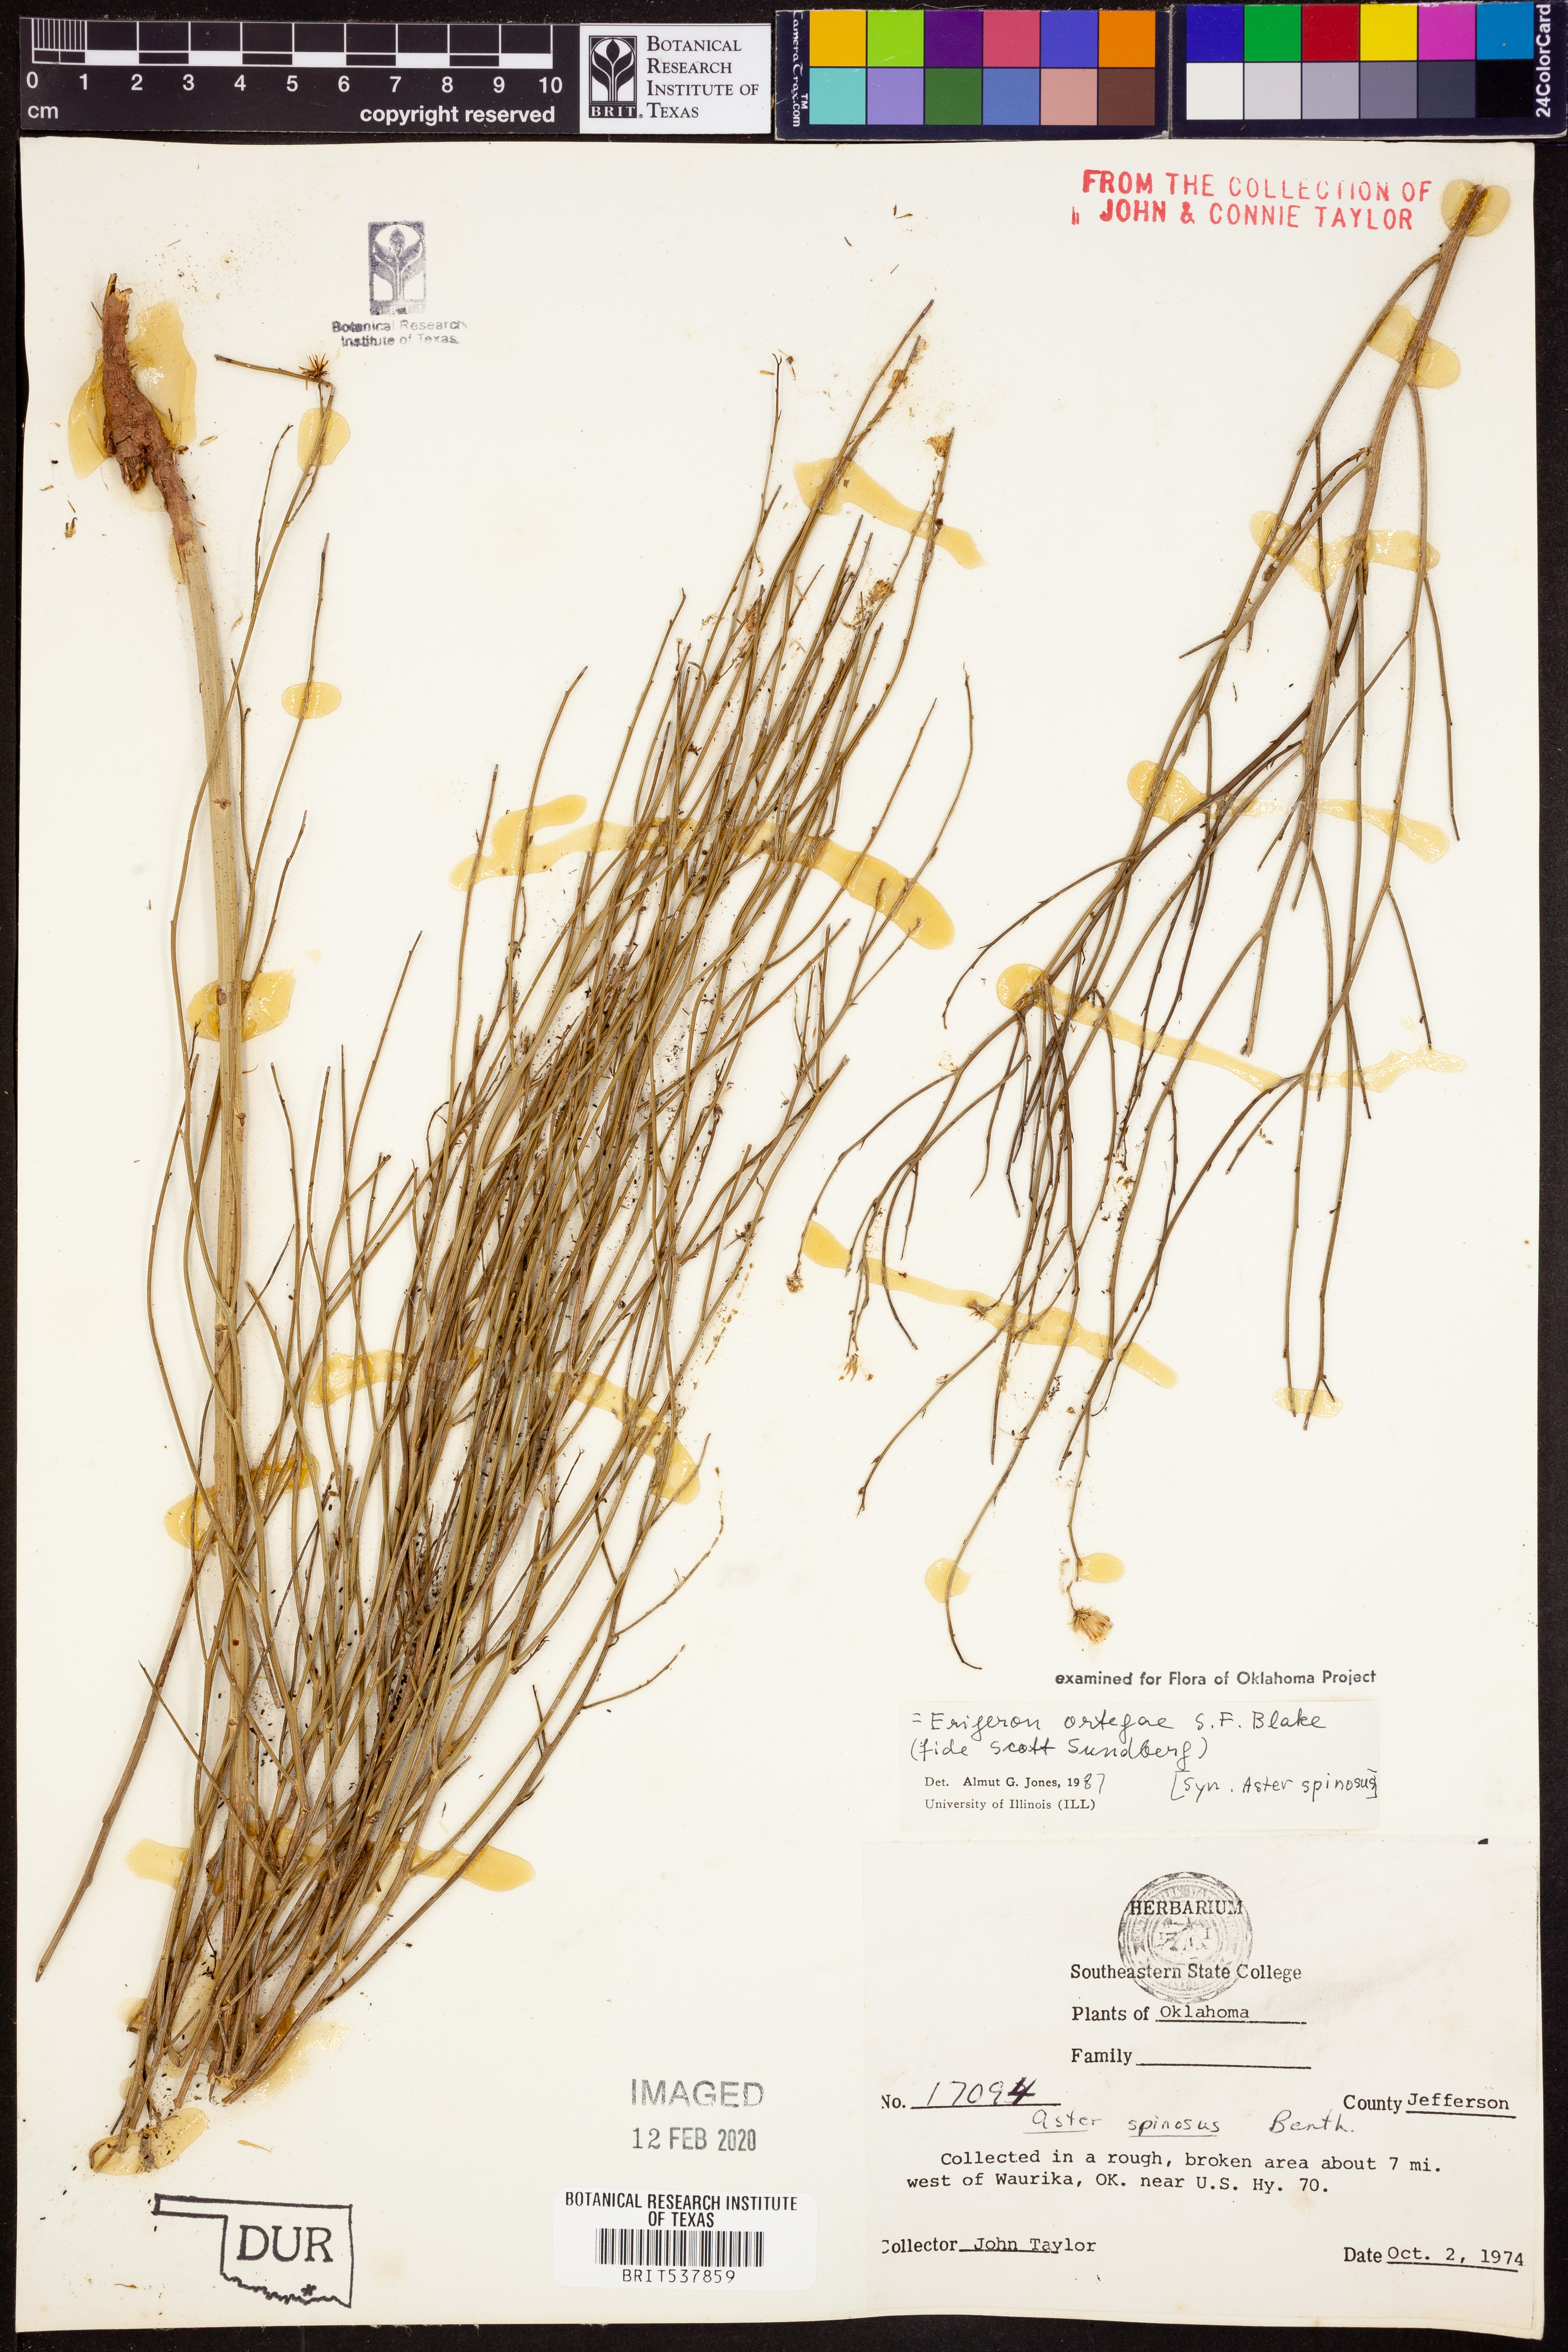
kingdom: Plantae
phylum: Tracheophyta
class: Magnoliopsida
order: Asterales
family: Asteraceae
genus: Chloracantha
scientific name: Chloracantha ortegae
